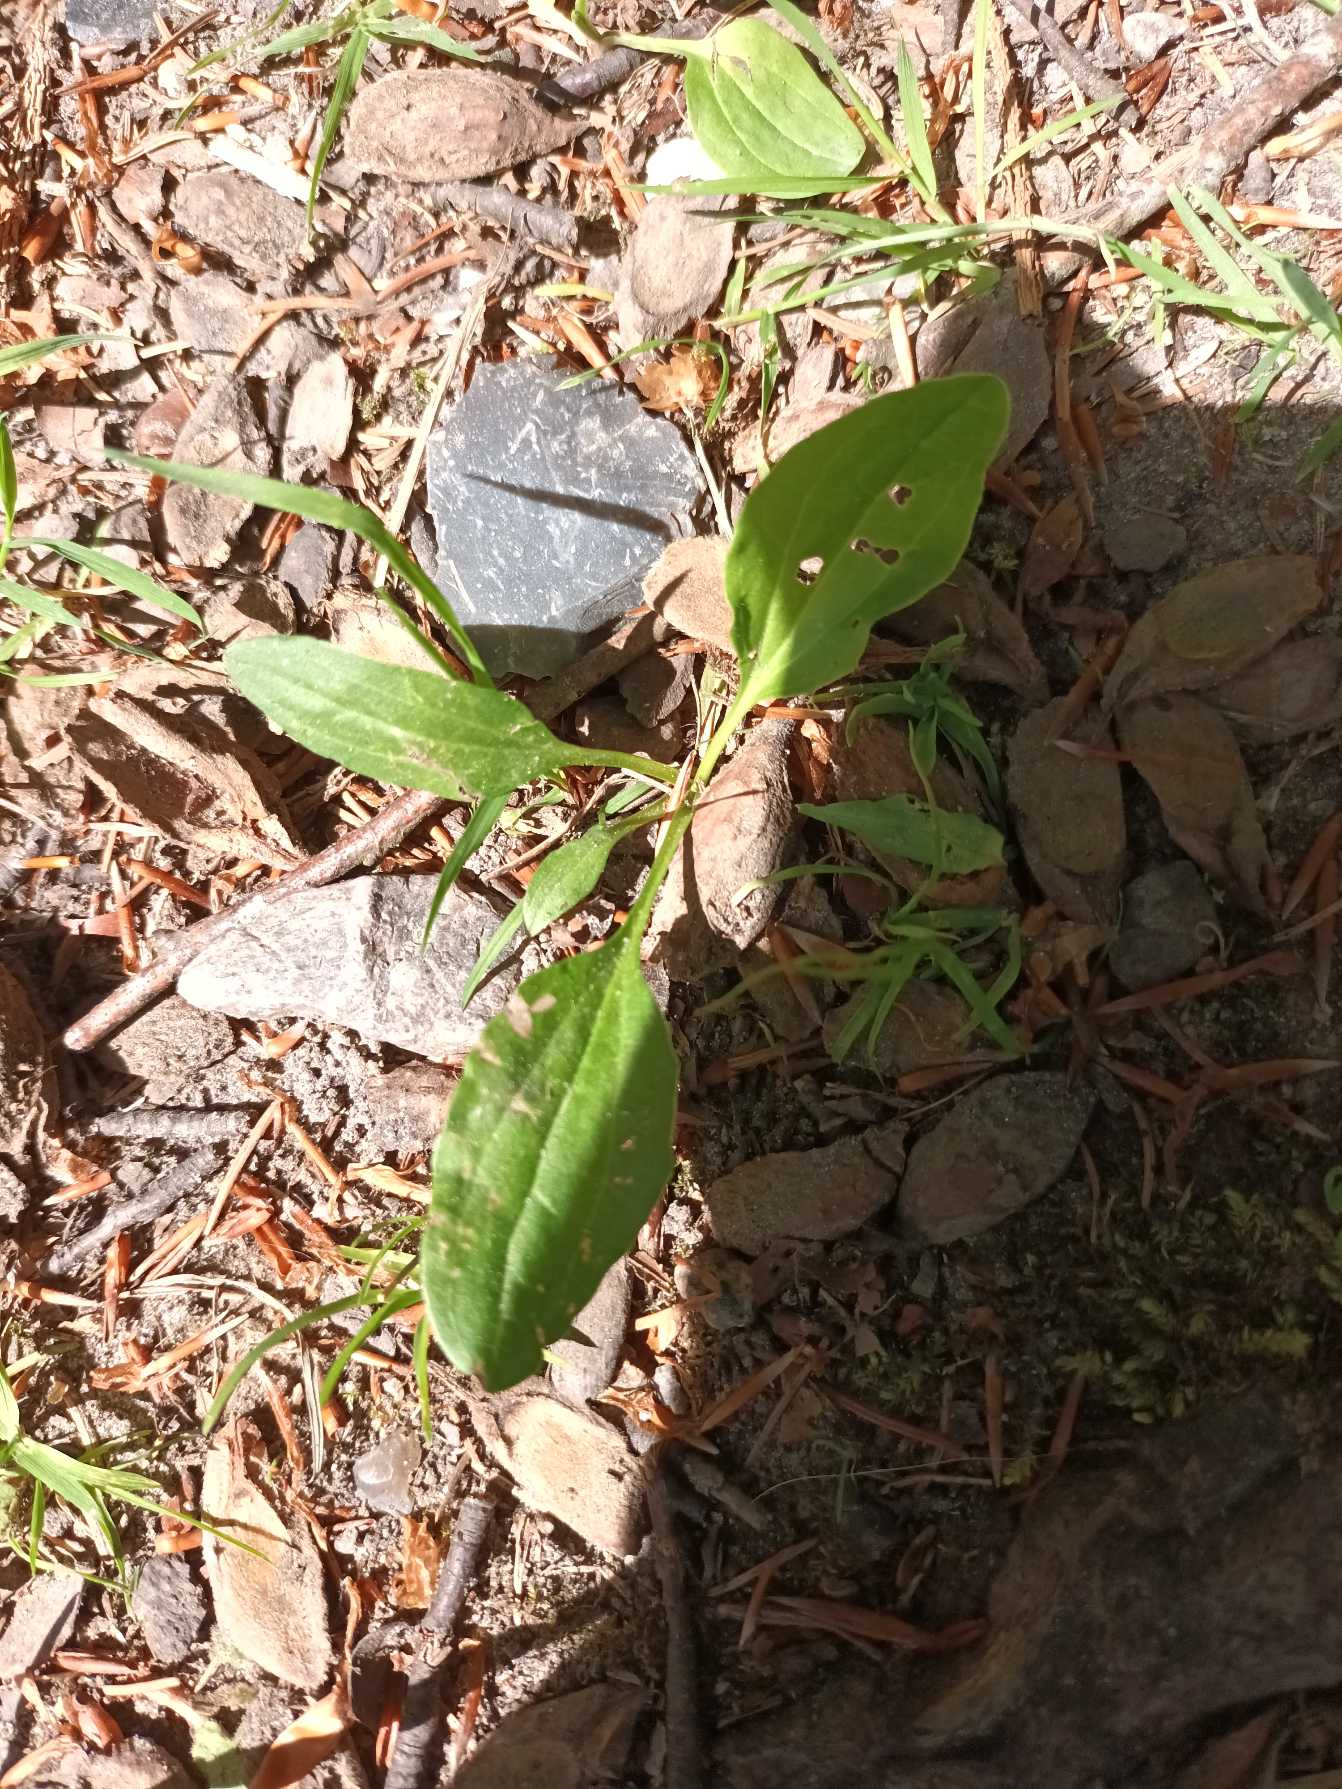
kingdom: Plantae
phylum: Tracheophyta
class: Magnoliopsida
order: Lamiales
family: Plantaginaceae
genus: Plantago
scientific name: Plantago major
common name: Glat vejbred
